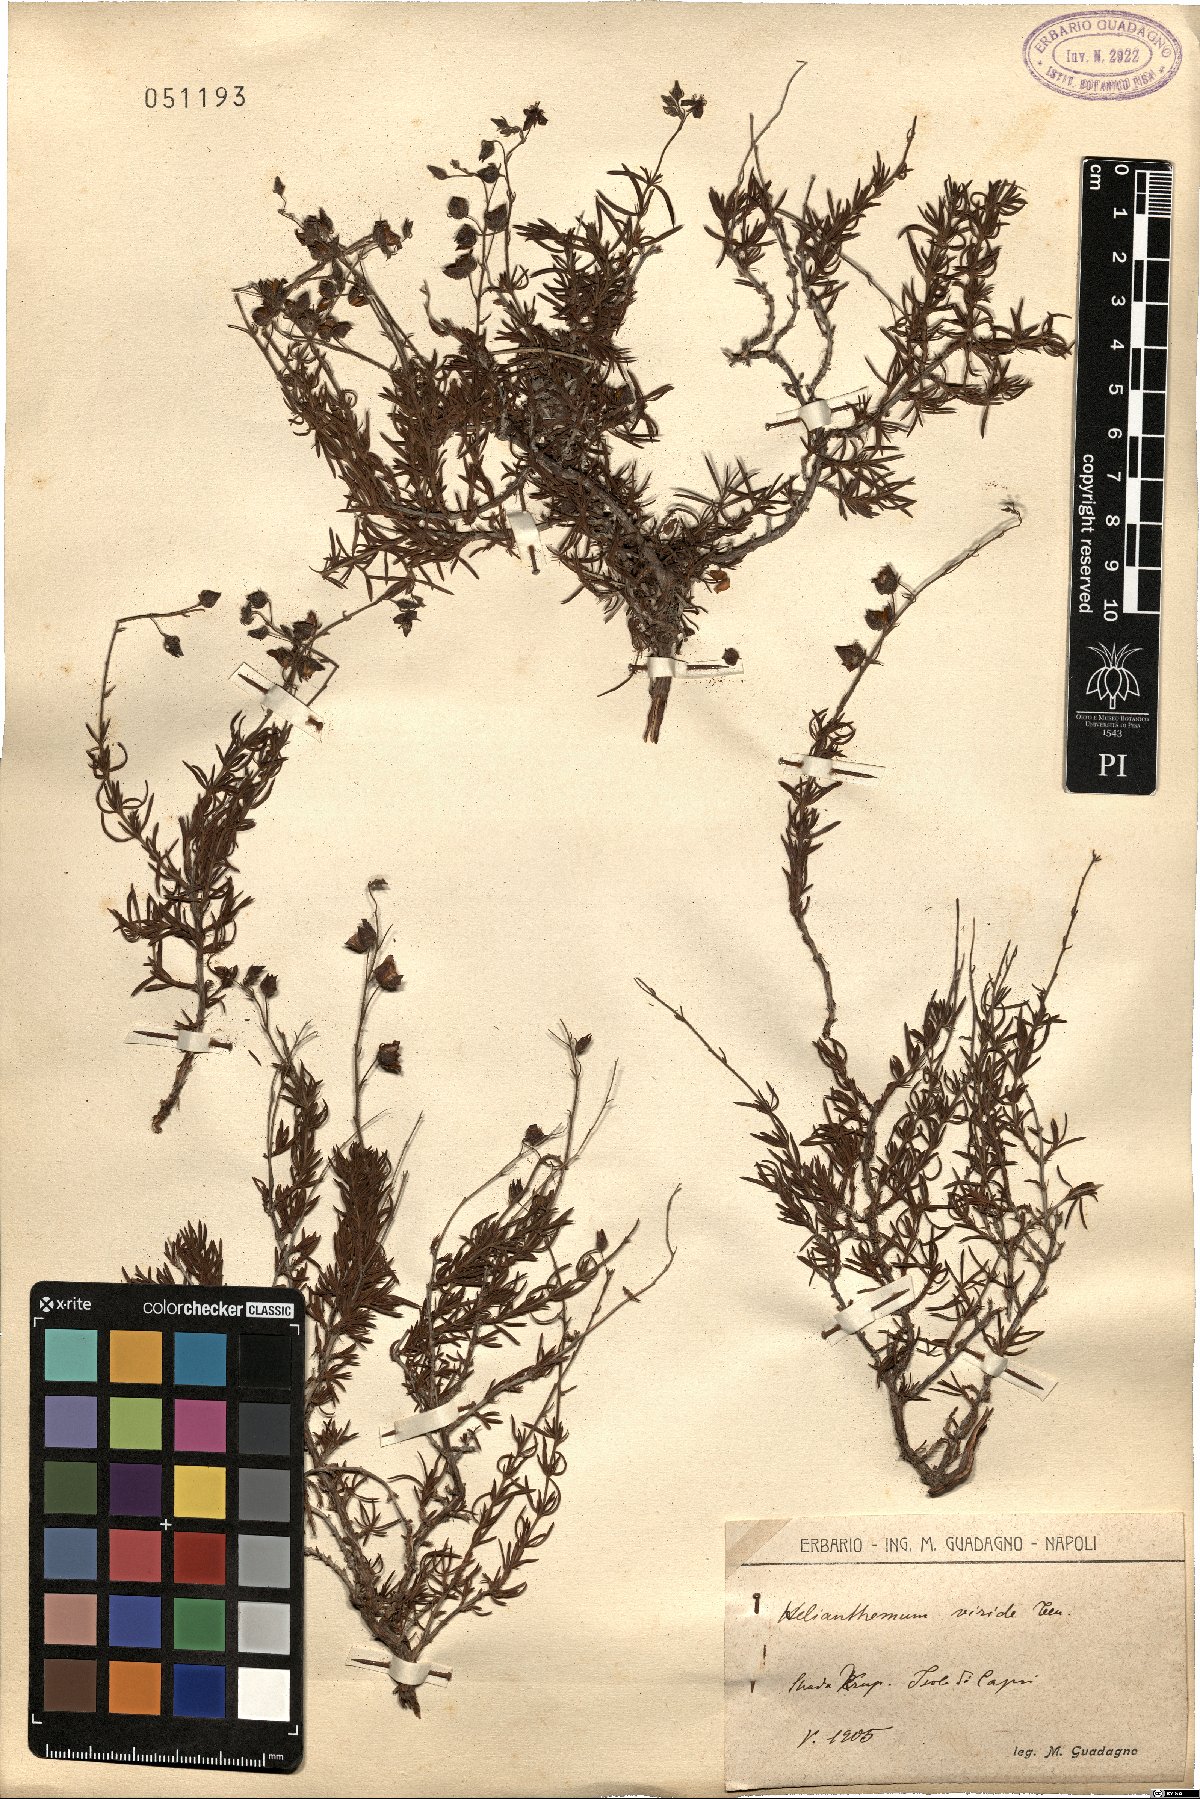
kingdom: Plantae
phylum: Tracheophyta
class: Magnoliopsida
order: Malvales
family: Cistaceae
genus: Fumana
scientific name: Fumana laevis
